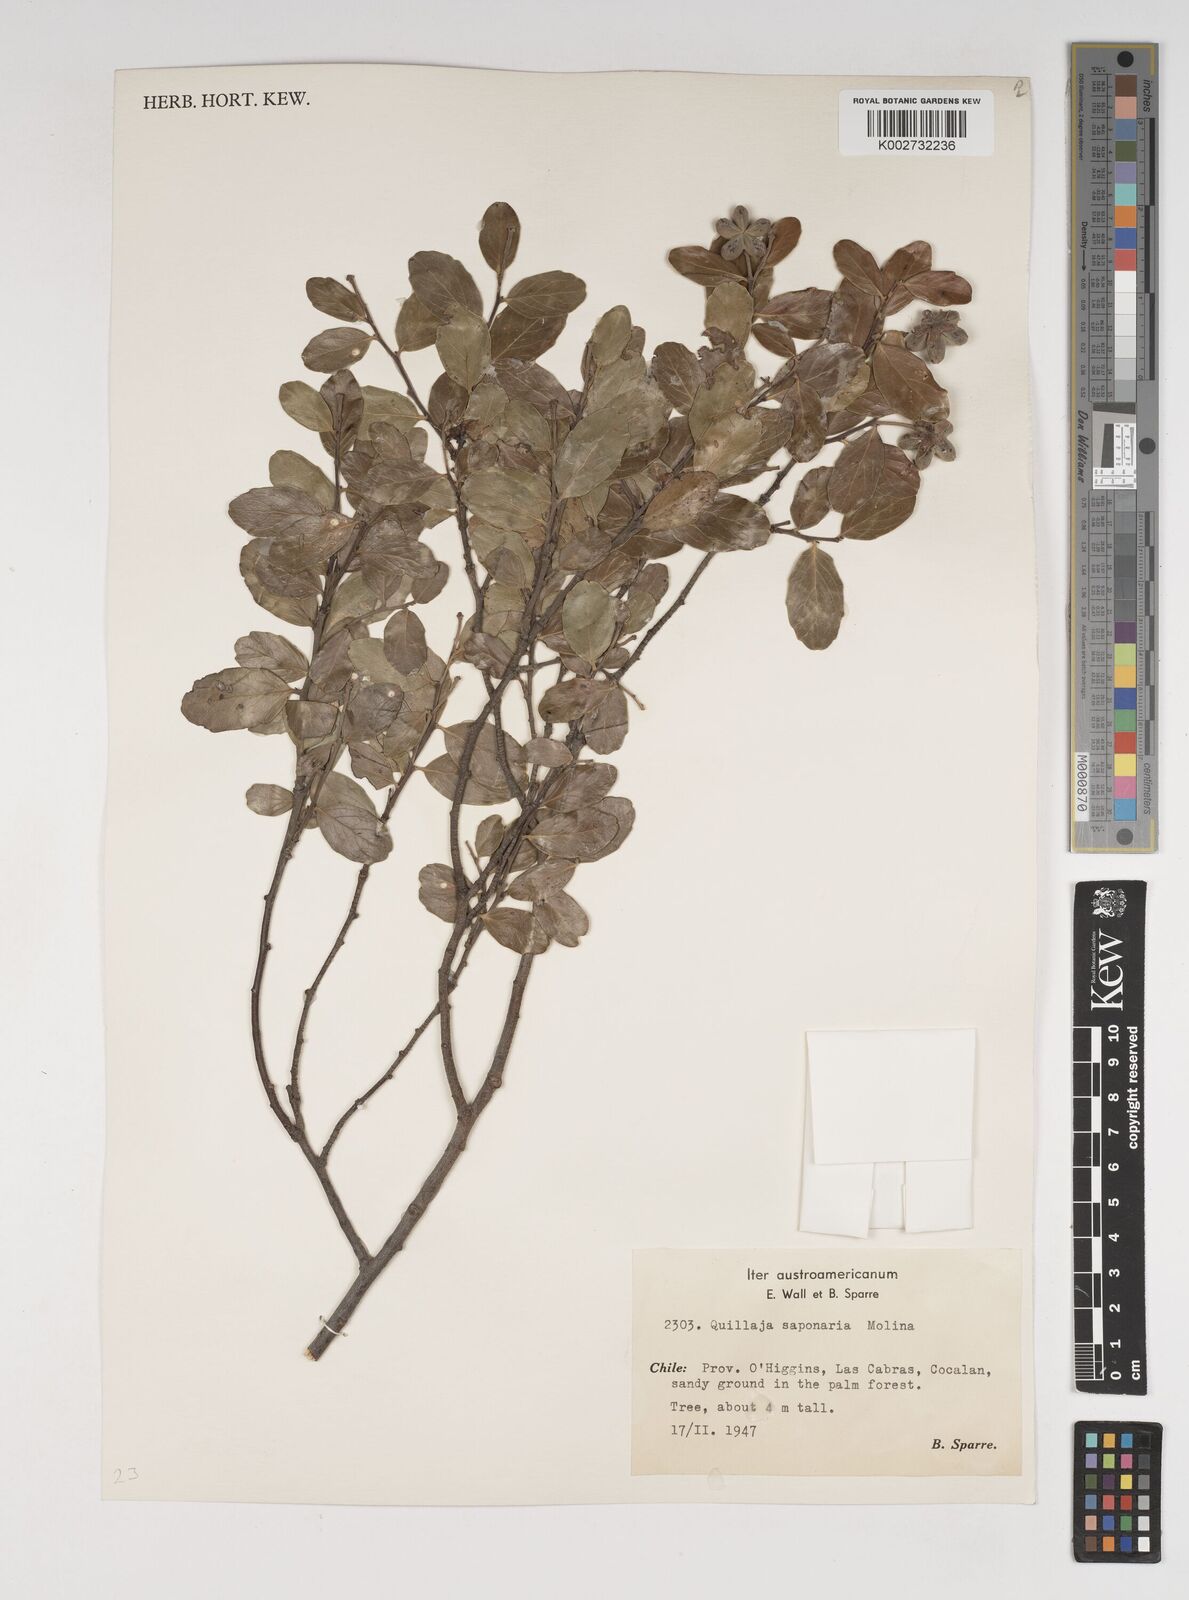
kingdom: Plantae
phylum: Tracheophyta
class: Magnoliopsida
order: Fabales
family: Quillajaceae
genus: Quillaja
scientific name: Quillaja saponaria
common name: Murillo's-bark
